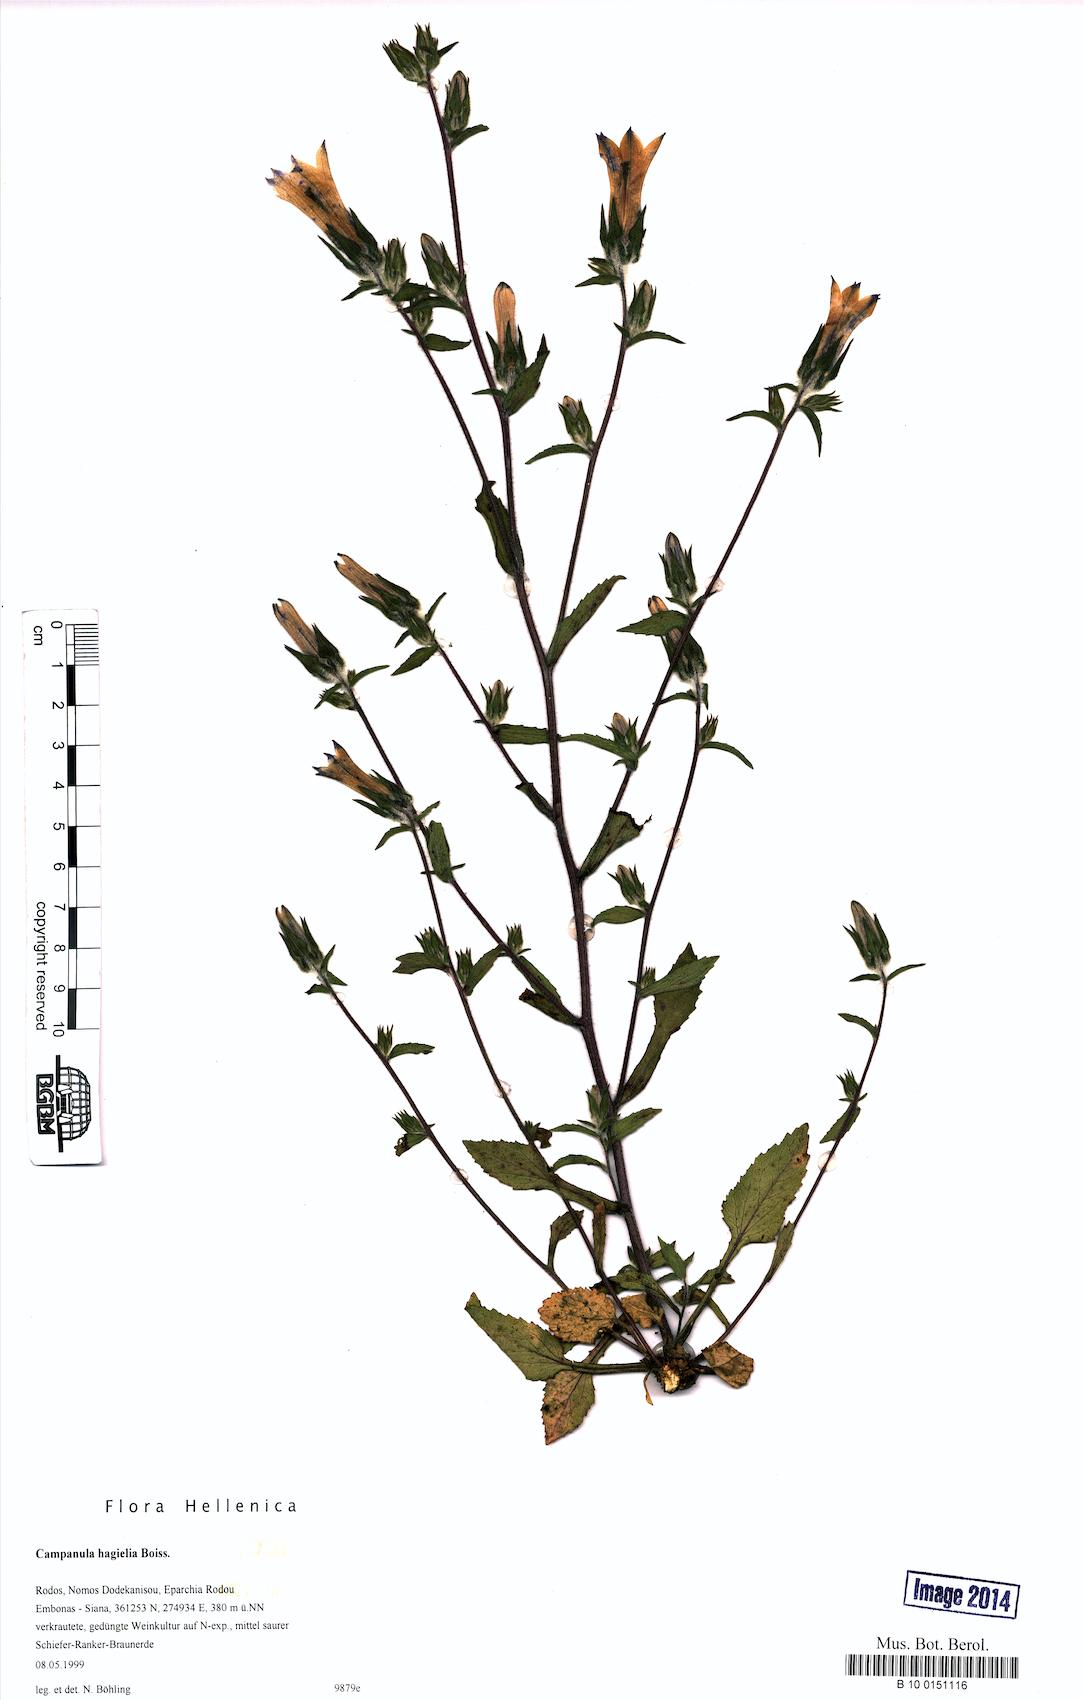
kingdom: Plantae
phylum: Tracheophyta
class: Magnoliopsida
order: Asterales
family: Campanulaceae
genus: Campanula
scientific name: Campanula hagielia
